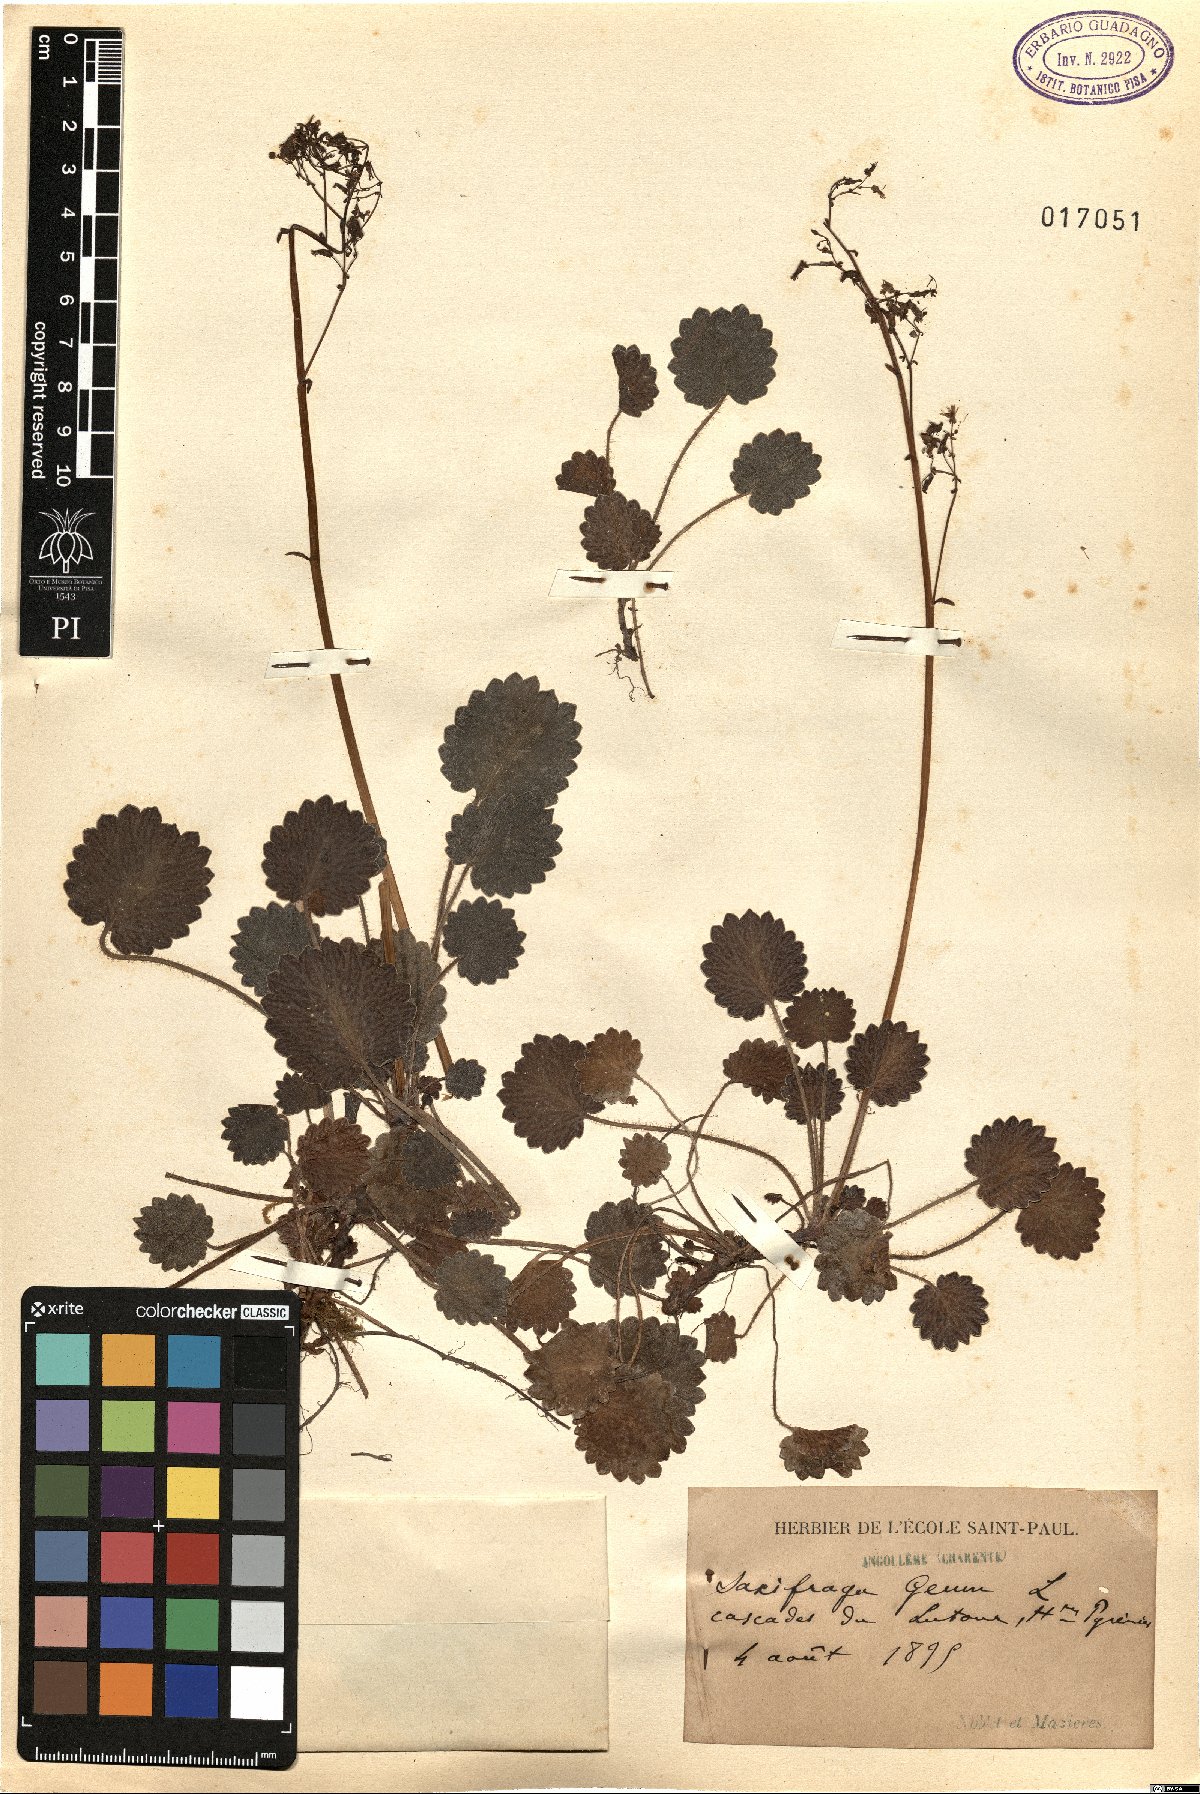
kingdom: Plantae
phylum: Tracheophyta
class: Magnoliopsida
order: Saxifragales
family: Saxifragaceae
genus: Saxifraga
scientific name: Saxifraga geum
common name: Geum saxifrage
